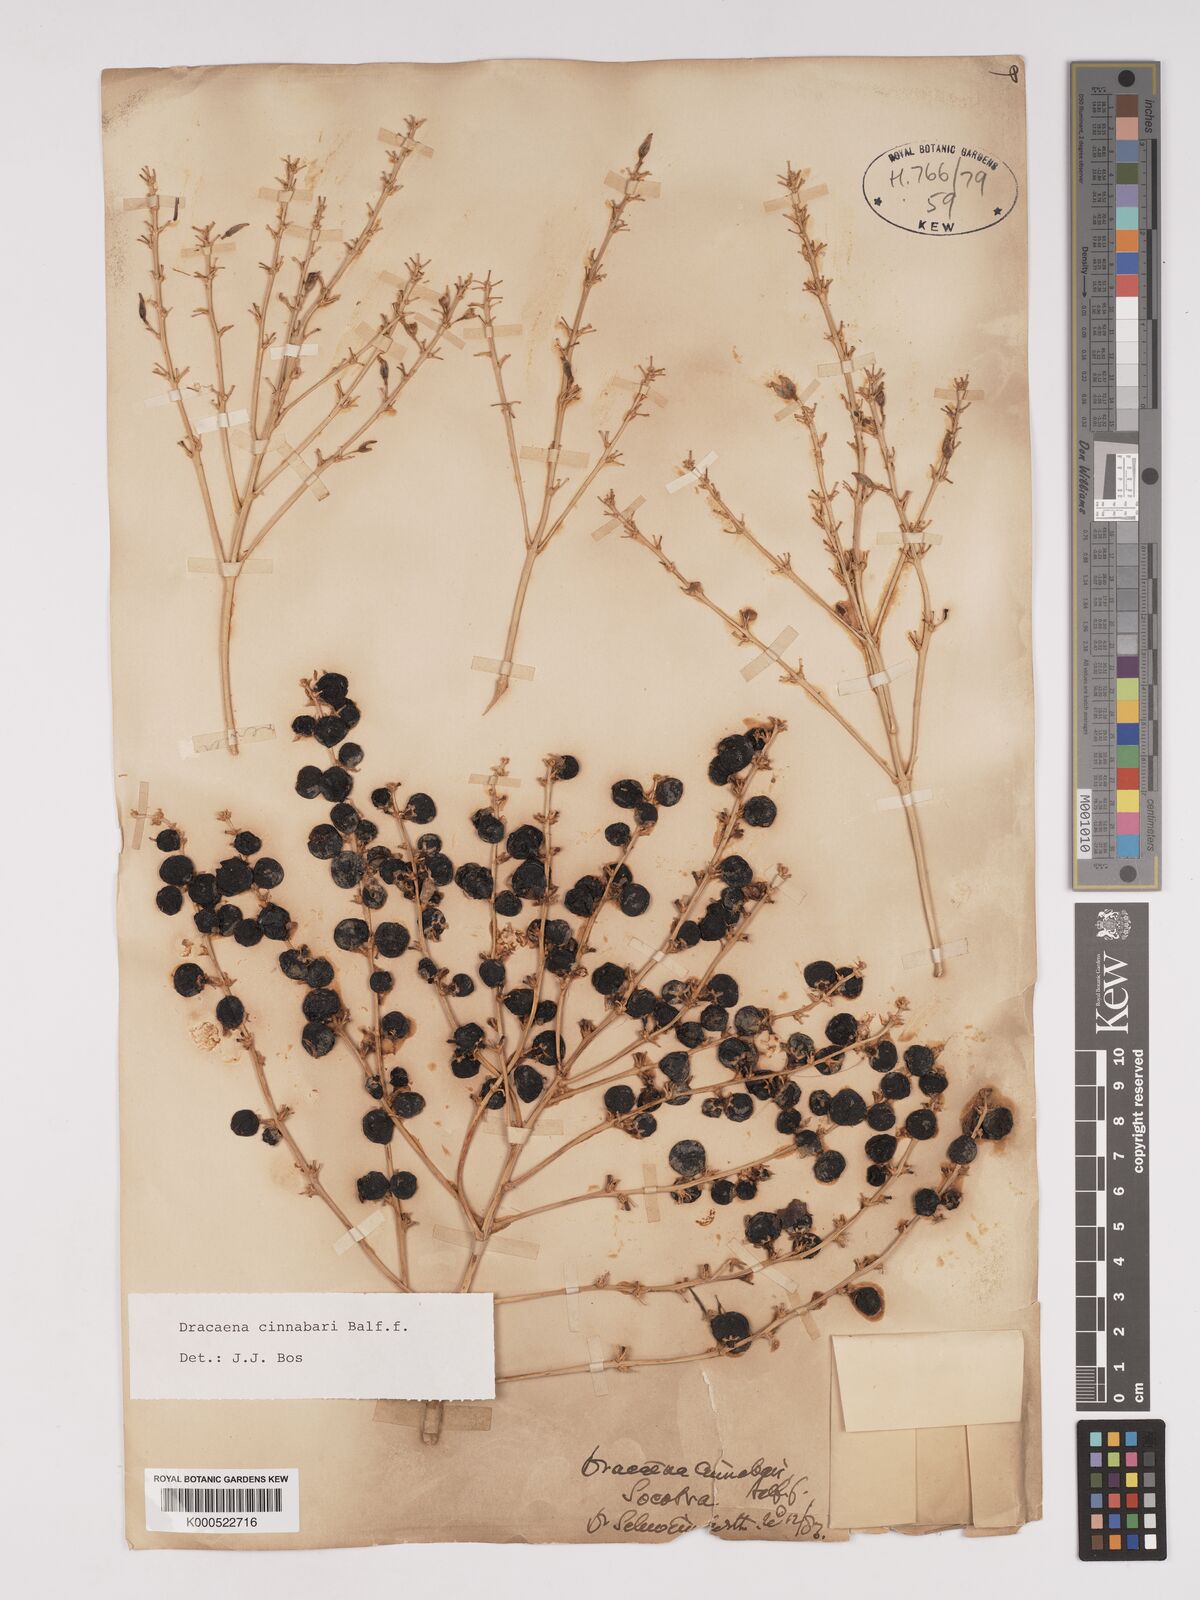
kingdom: Plantae
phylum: Tracheophyta
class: Liliopsida
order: Asparagales
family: Asparagaceae
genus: Dracaena
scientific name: Dracaena cinnabari
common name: Dragon's blood tree
